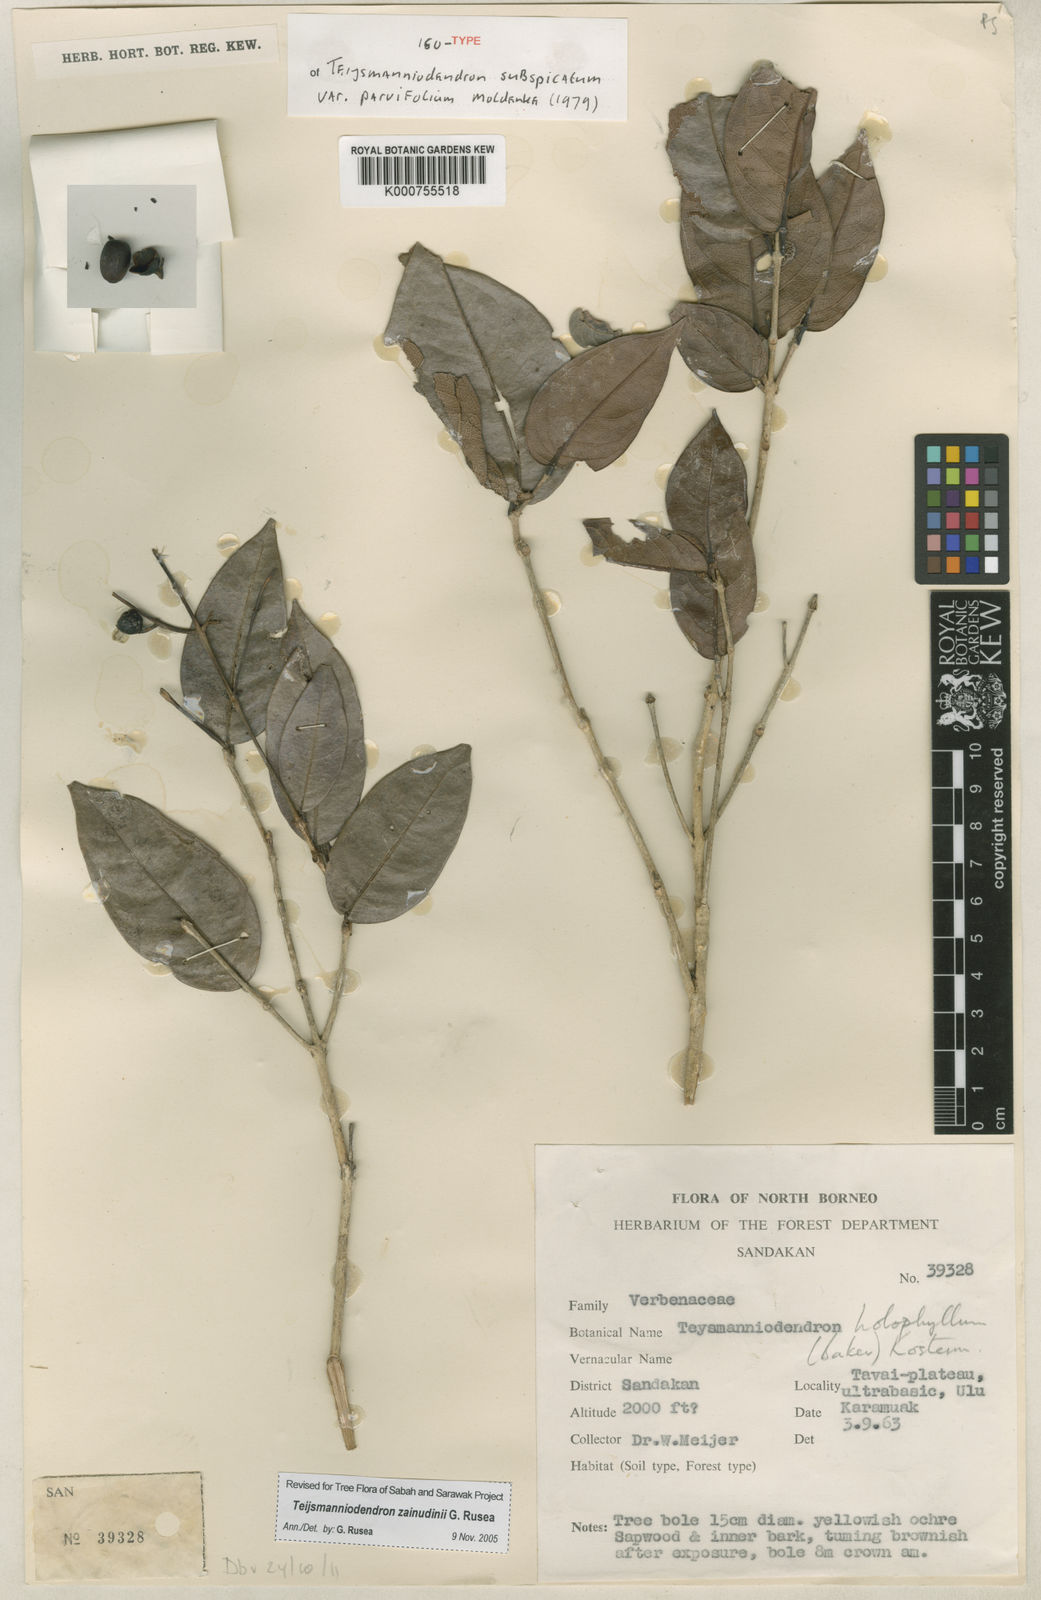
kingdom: Plantae
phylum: Tracheophyta
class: Magnoliopsida
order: Lamiales
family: Lamiaceae
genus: Teijsmanniodendron
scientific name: Teijsmanniodendron zainudinii
